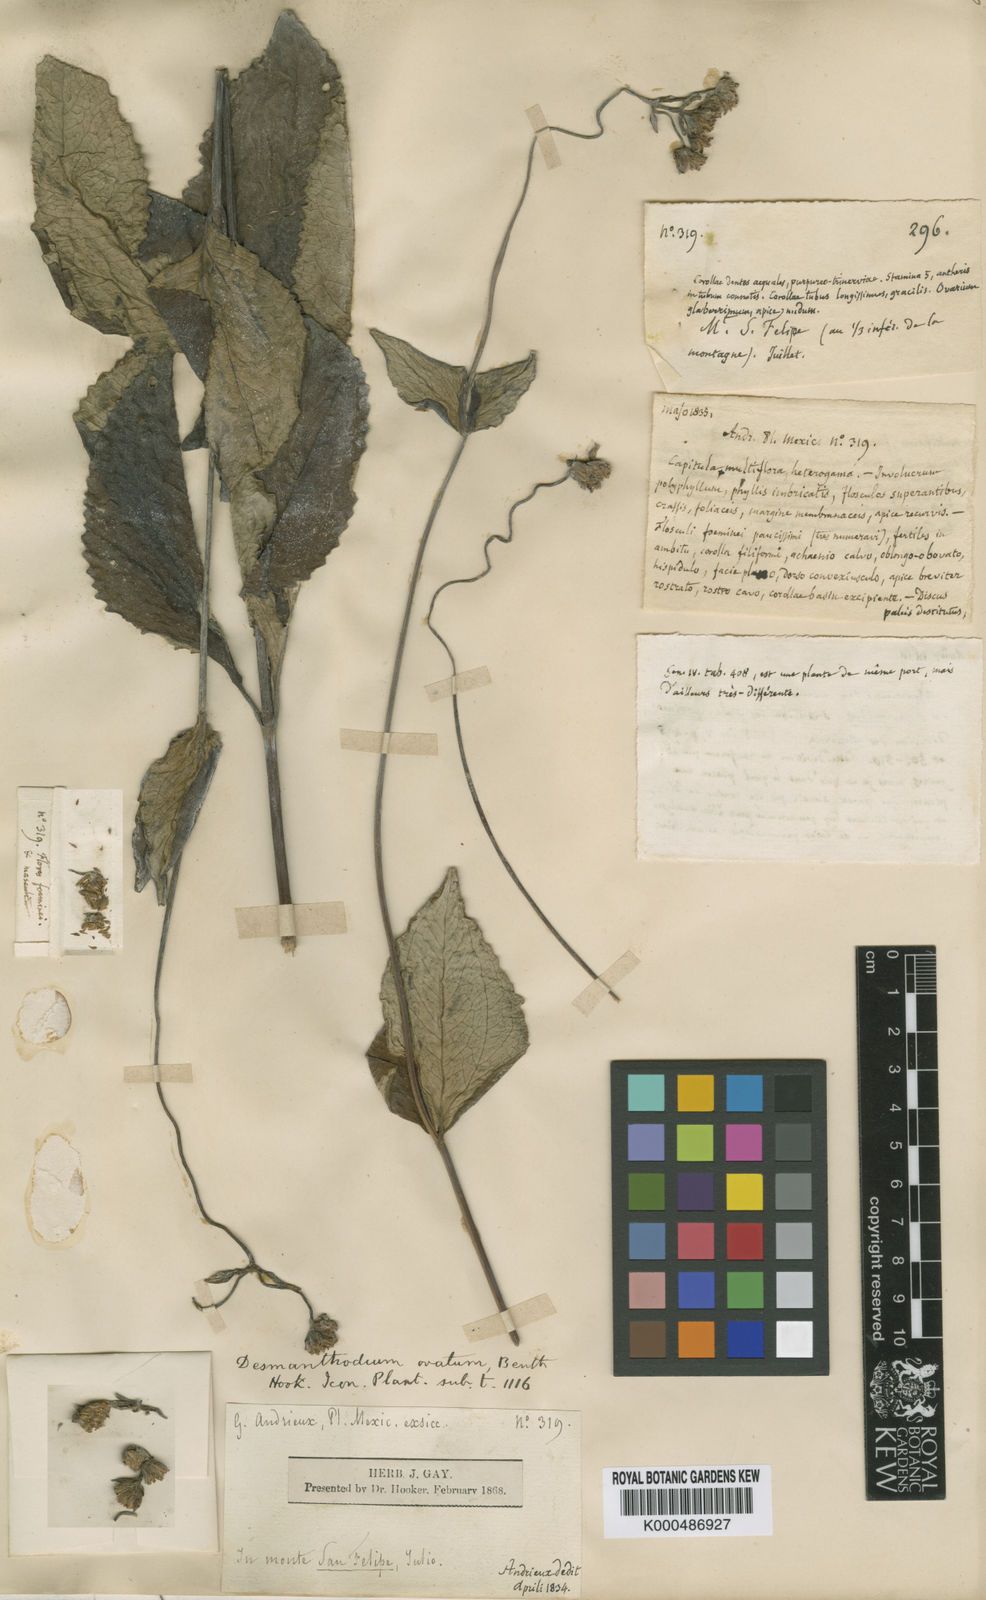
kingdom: Plantae
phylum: Tracheophyta
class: Magnoliopsida
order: Asterales
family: Asteraceae
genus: Desmanthodium
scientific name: Desmanthodium ovatum
